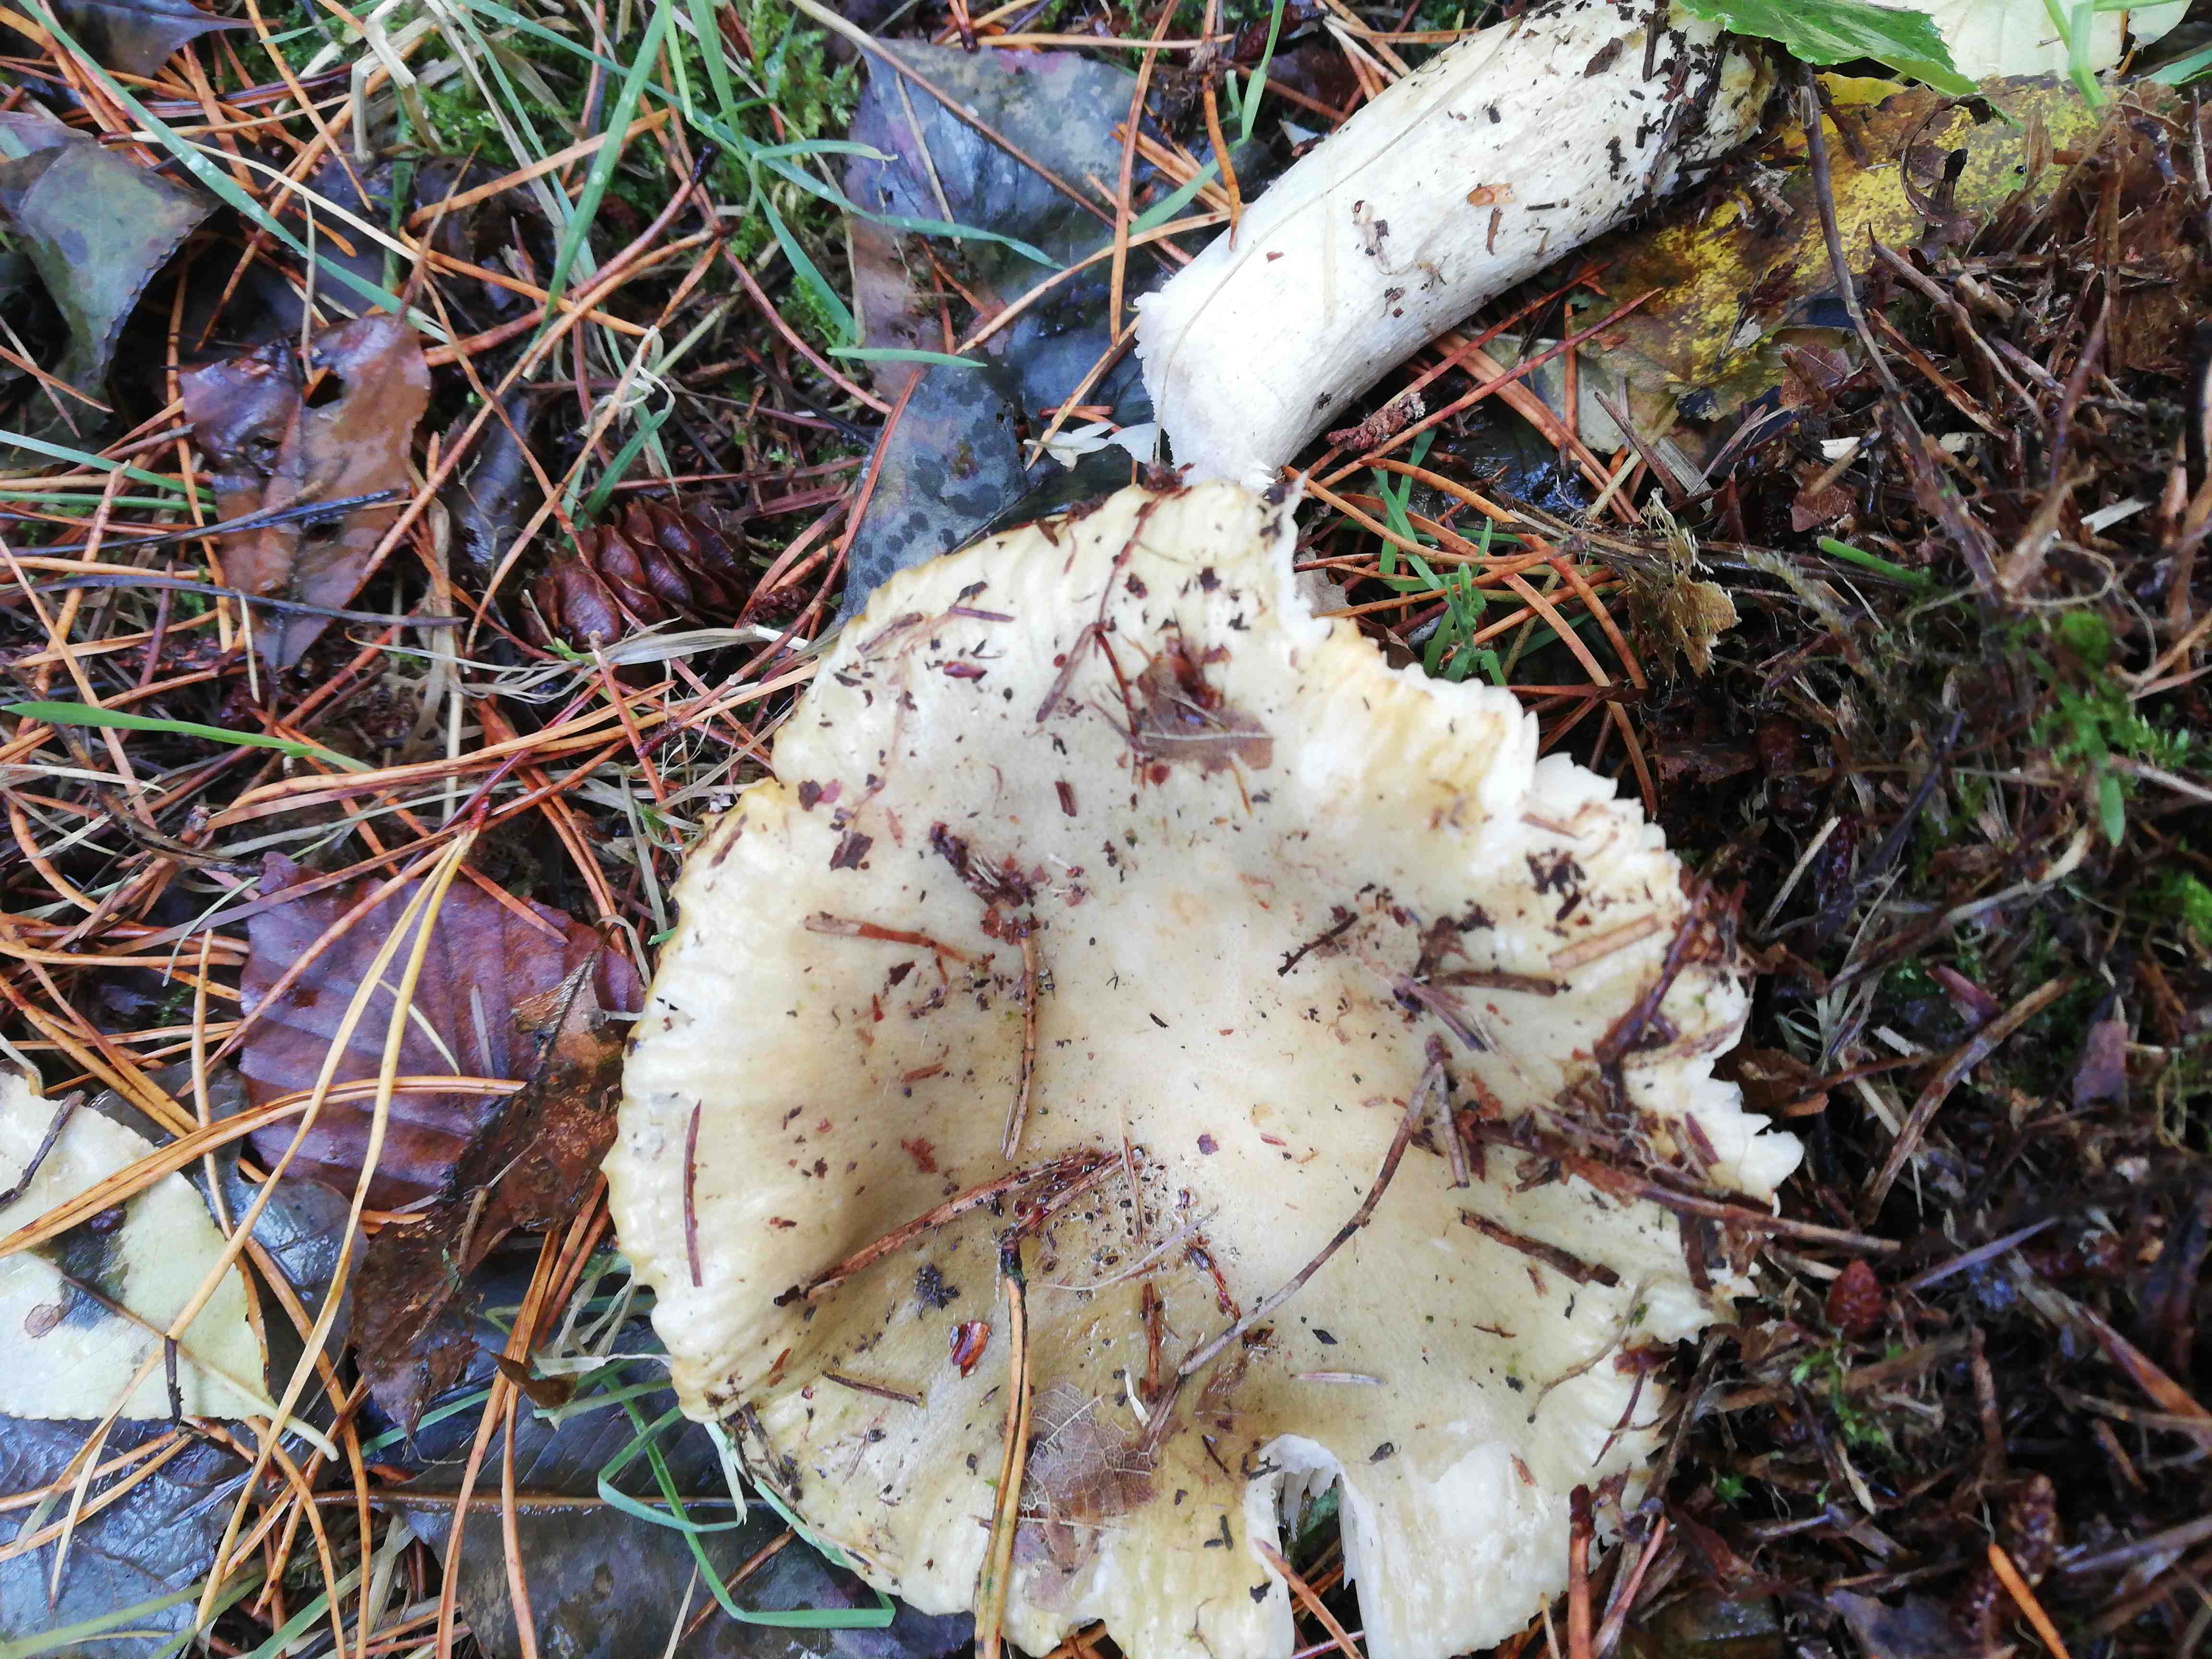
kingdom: Fungi
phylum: Basidiomycota
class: Agaricomycetes
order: Russulales
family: Russulaceae
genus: Russula
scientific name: Russula ochroleuca
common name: okkergul skørhat
